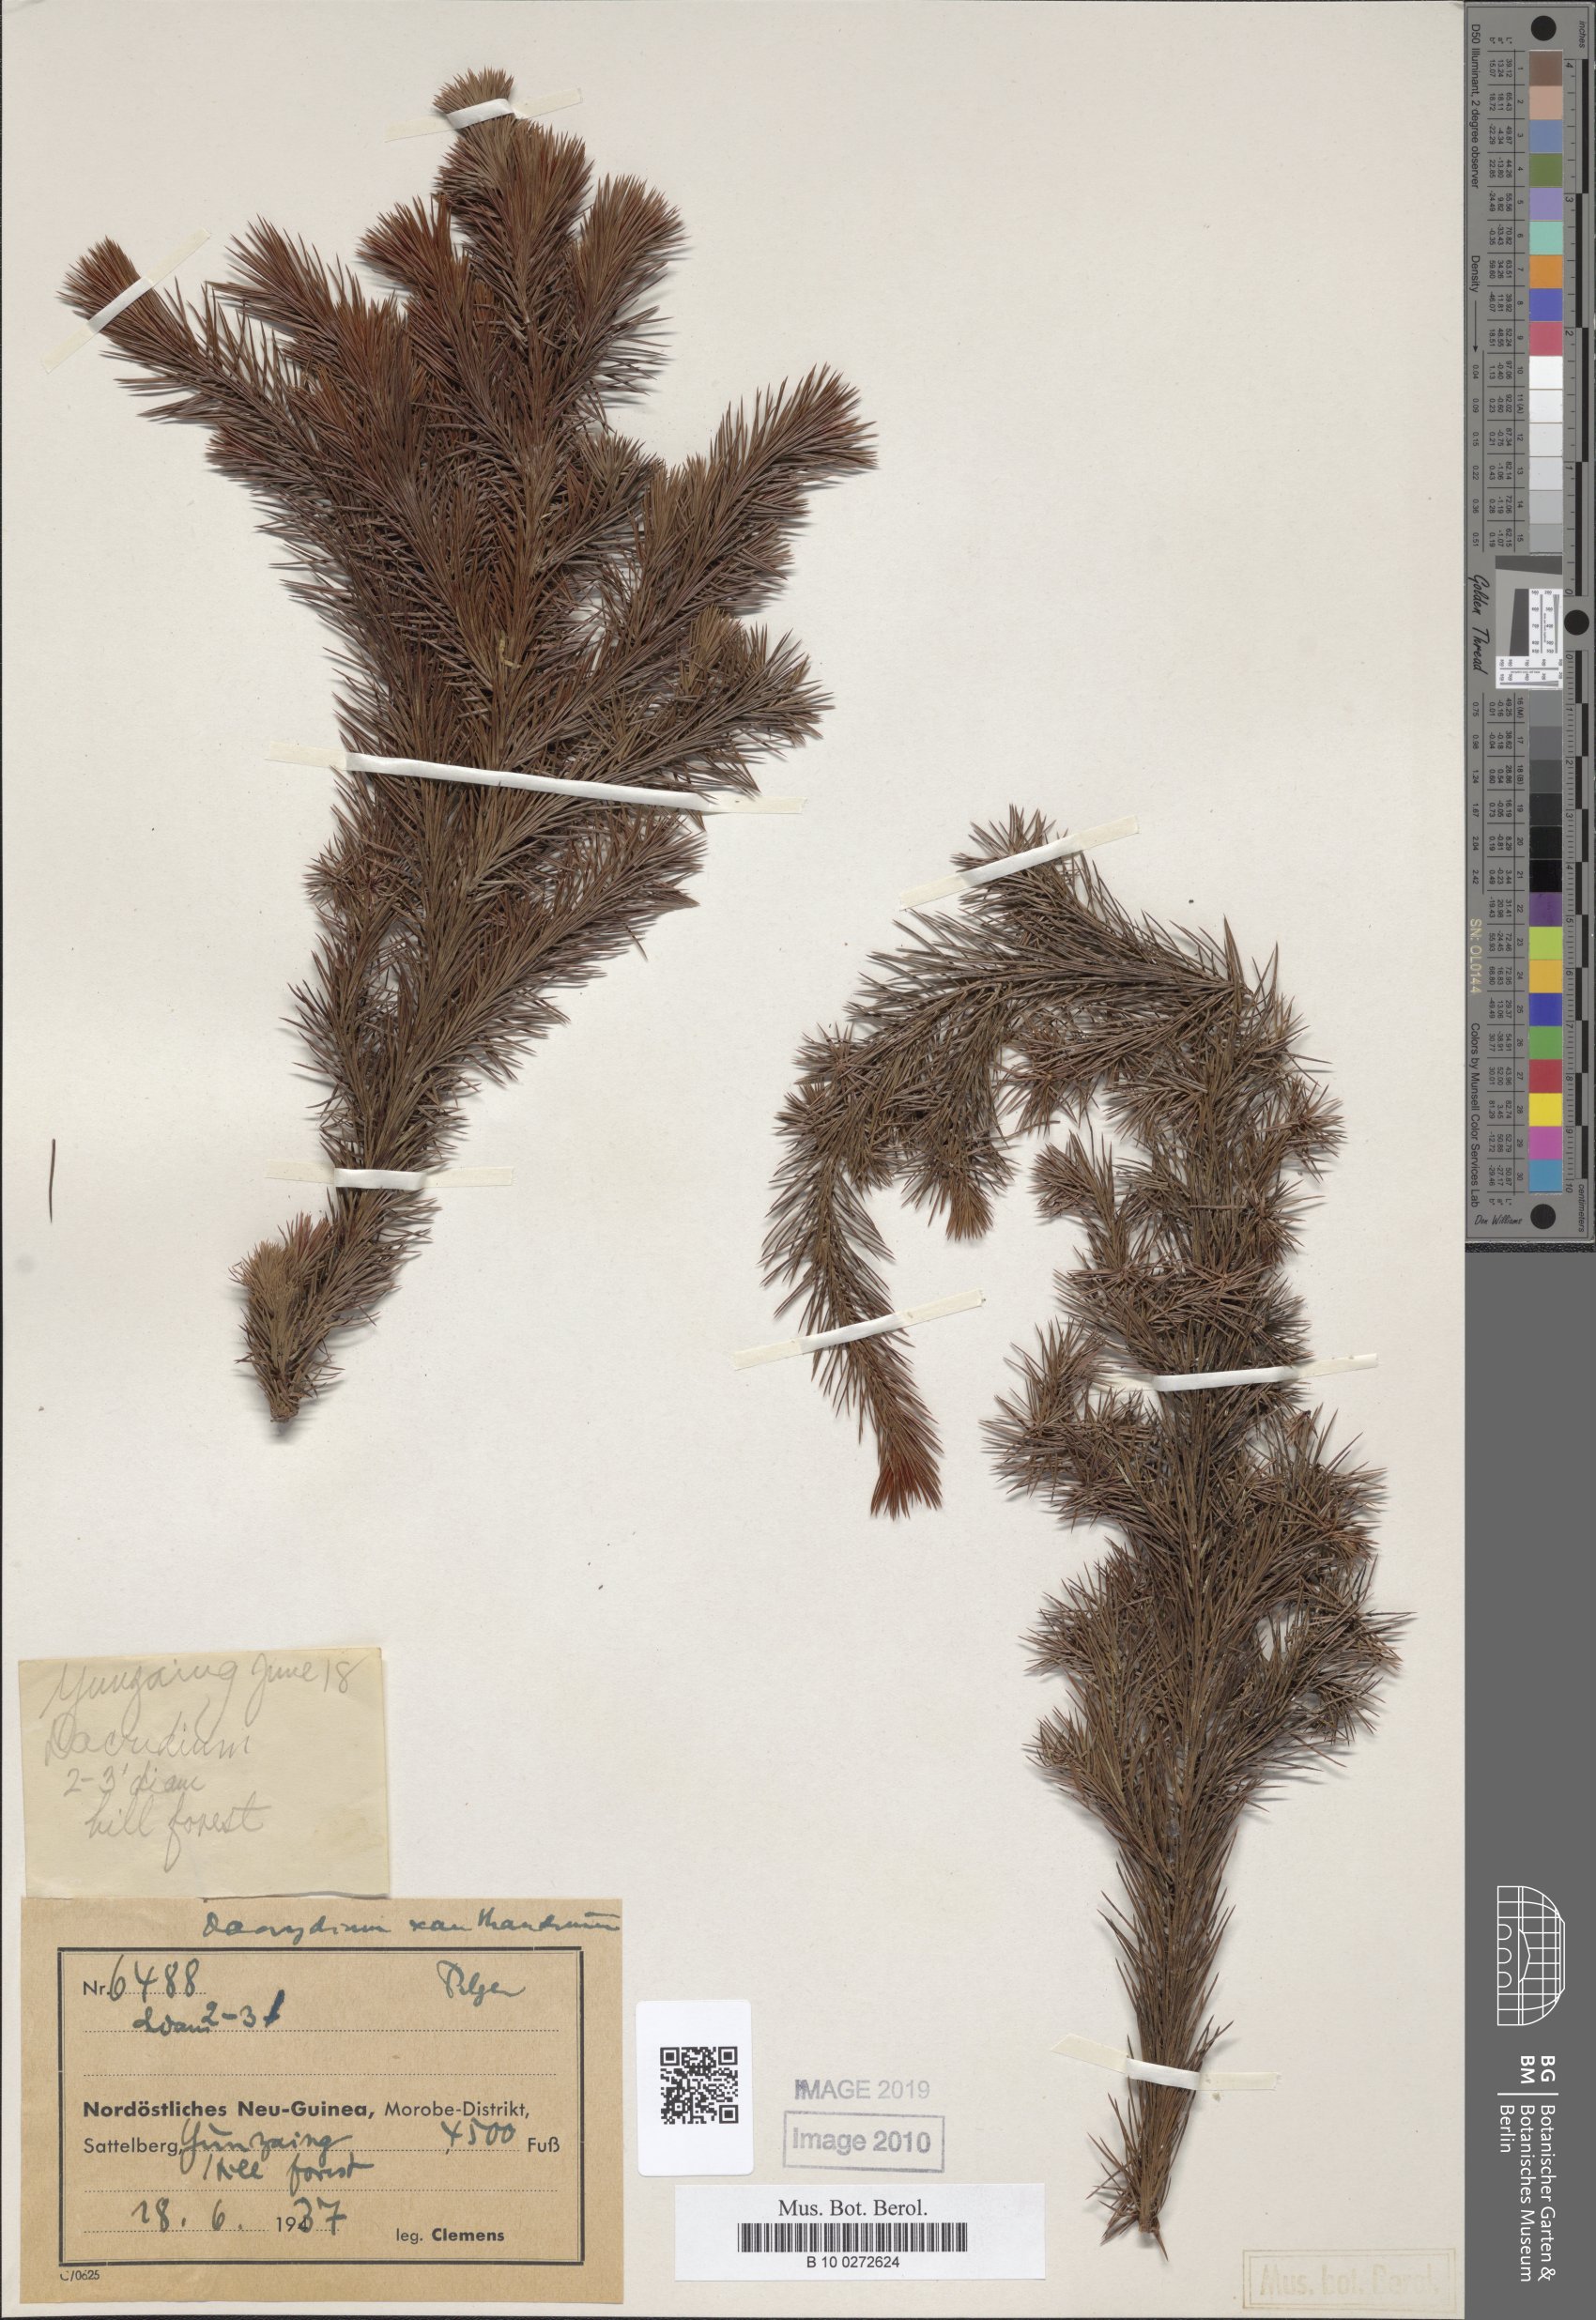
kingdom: Plantae
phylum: Tracheophyta
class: Pinopsida
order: Pinales
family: Podocarpaceae
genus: Dacrydium
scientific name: Dacrydium xanthandrum
